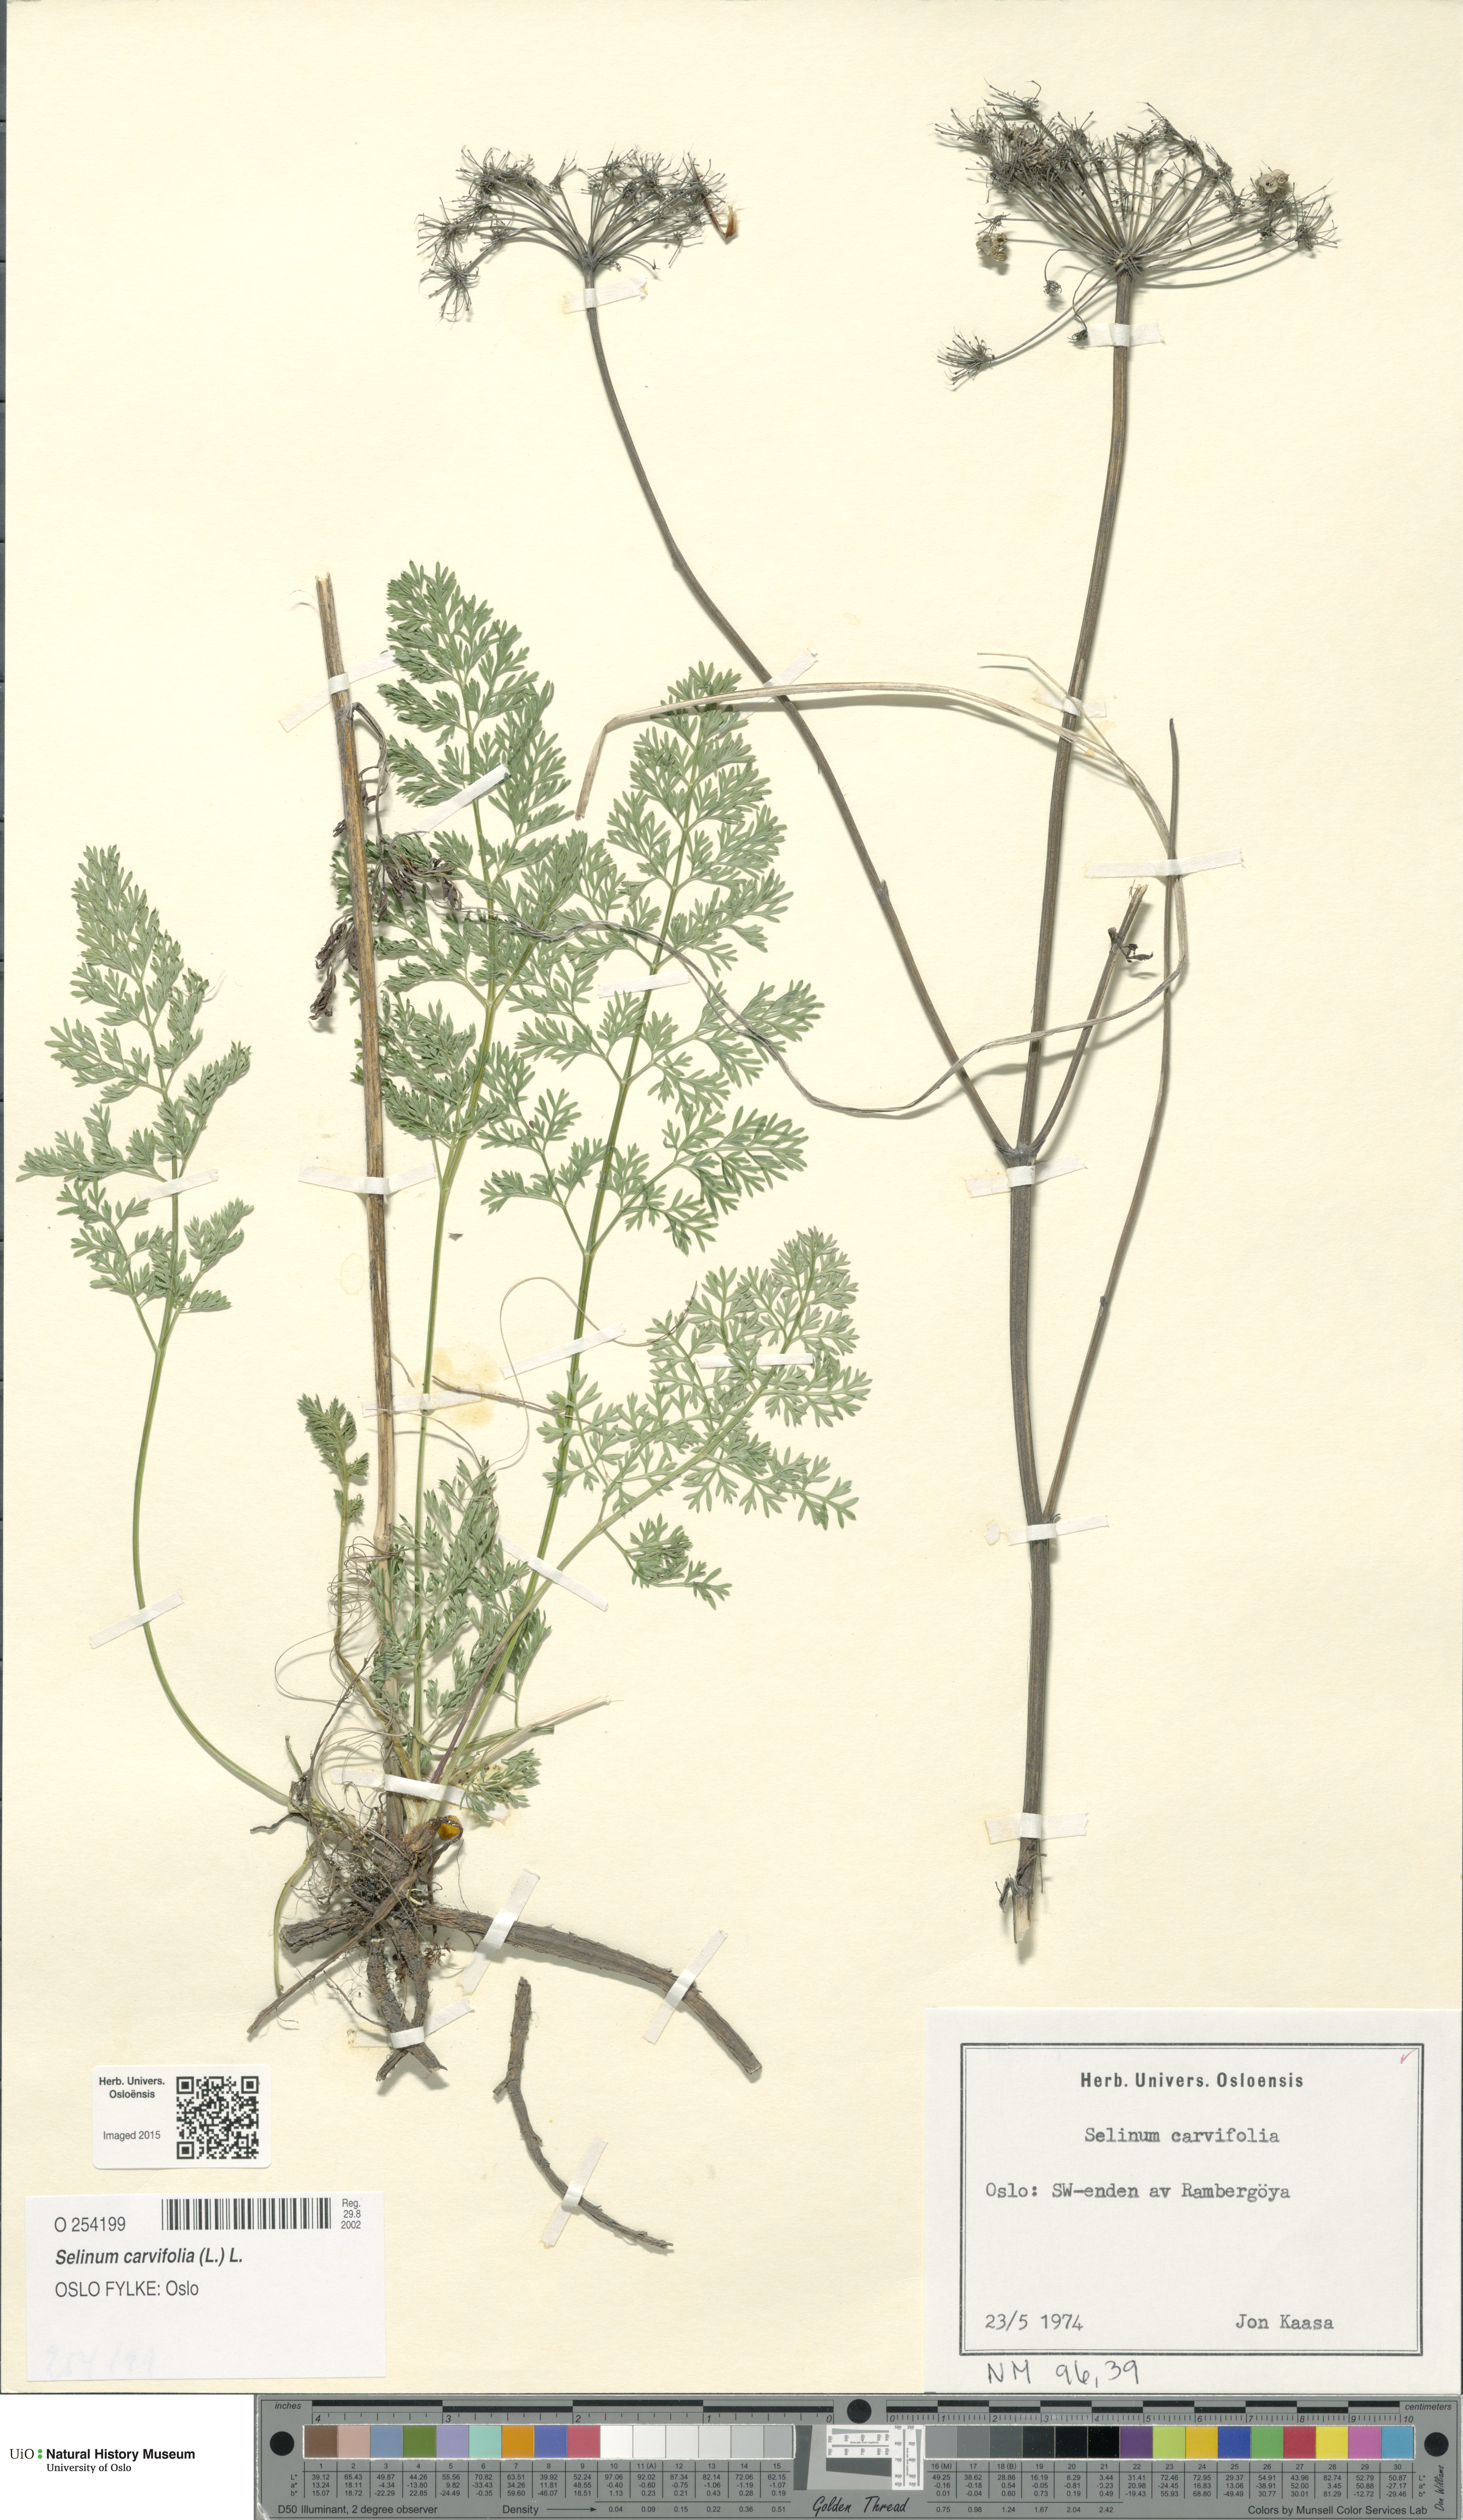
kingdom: Plantae
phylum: Tracheophyta
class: Magnoliopsida
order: Apiales
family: Apiaceae
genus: Selinum
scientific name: Selinum carvifolia
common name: Cambridge milk-parsley
